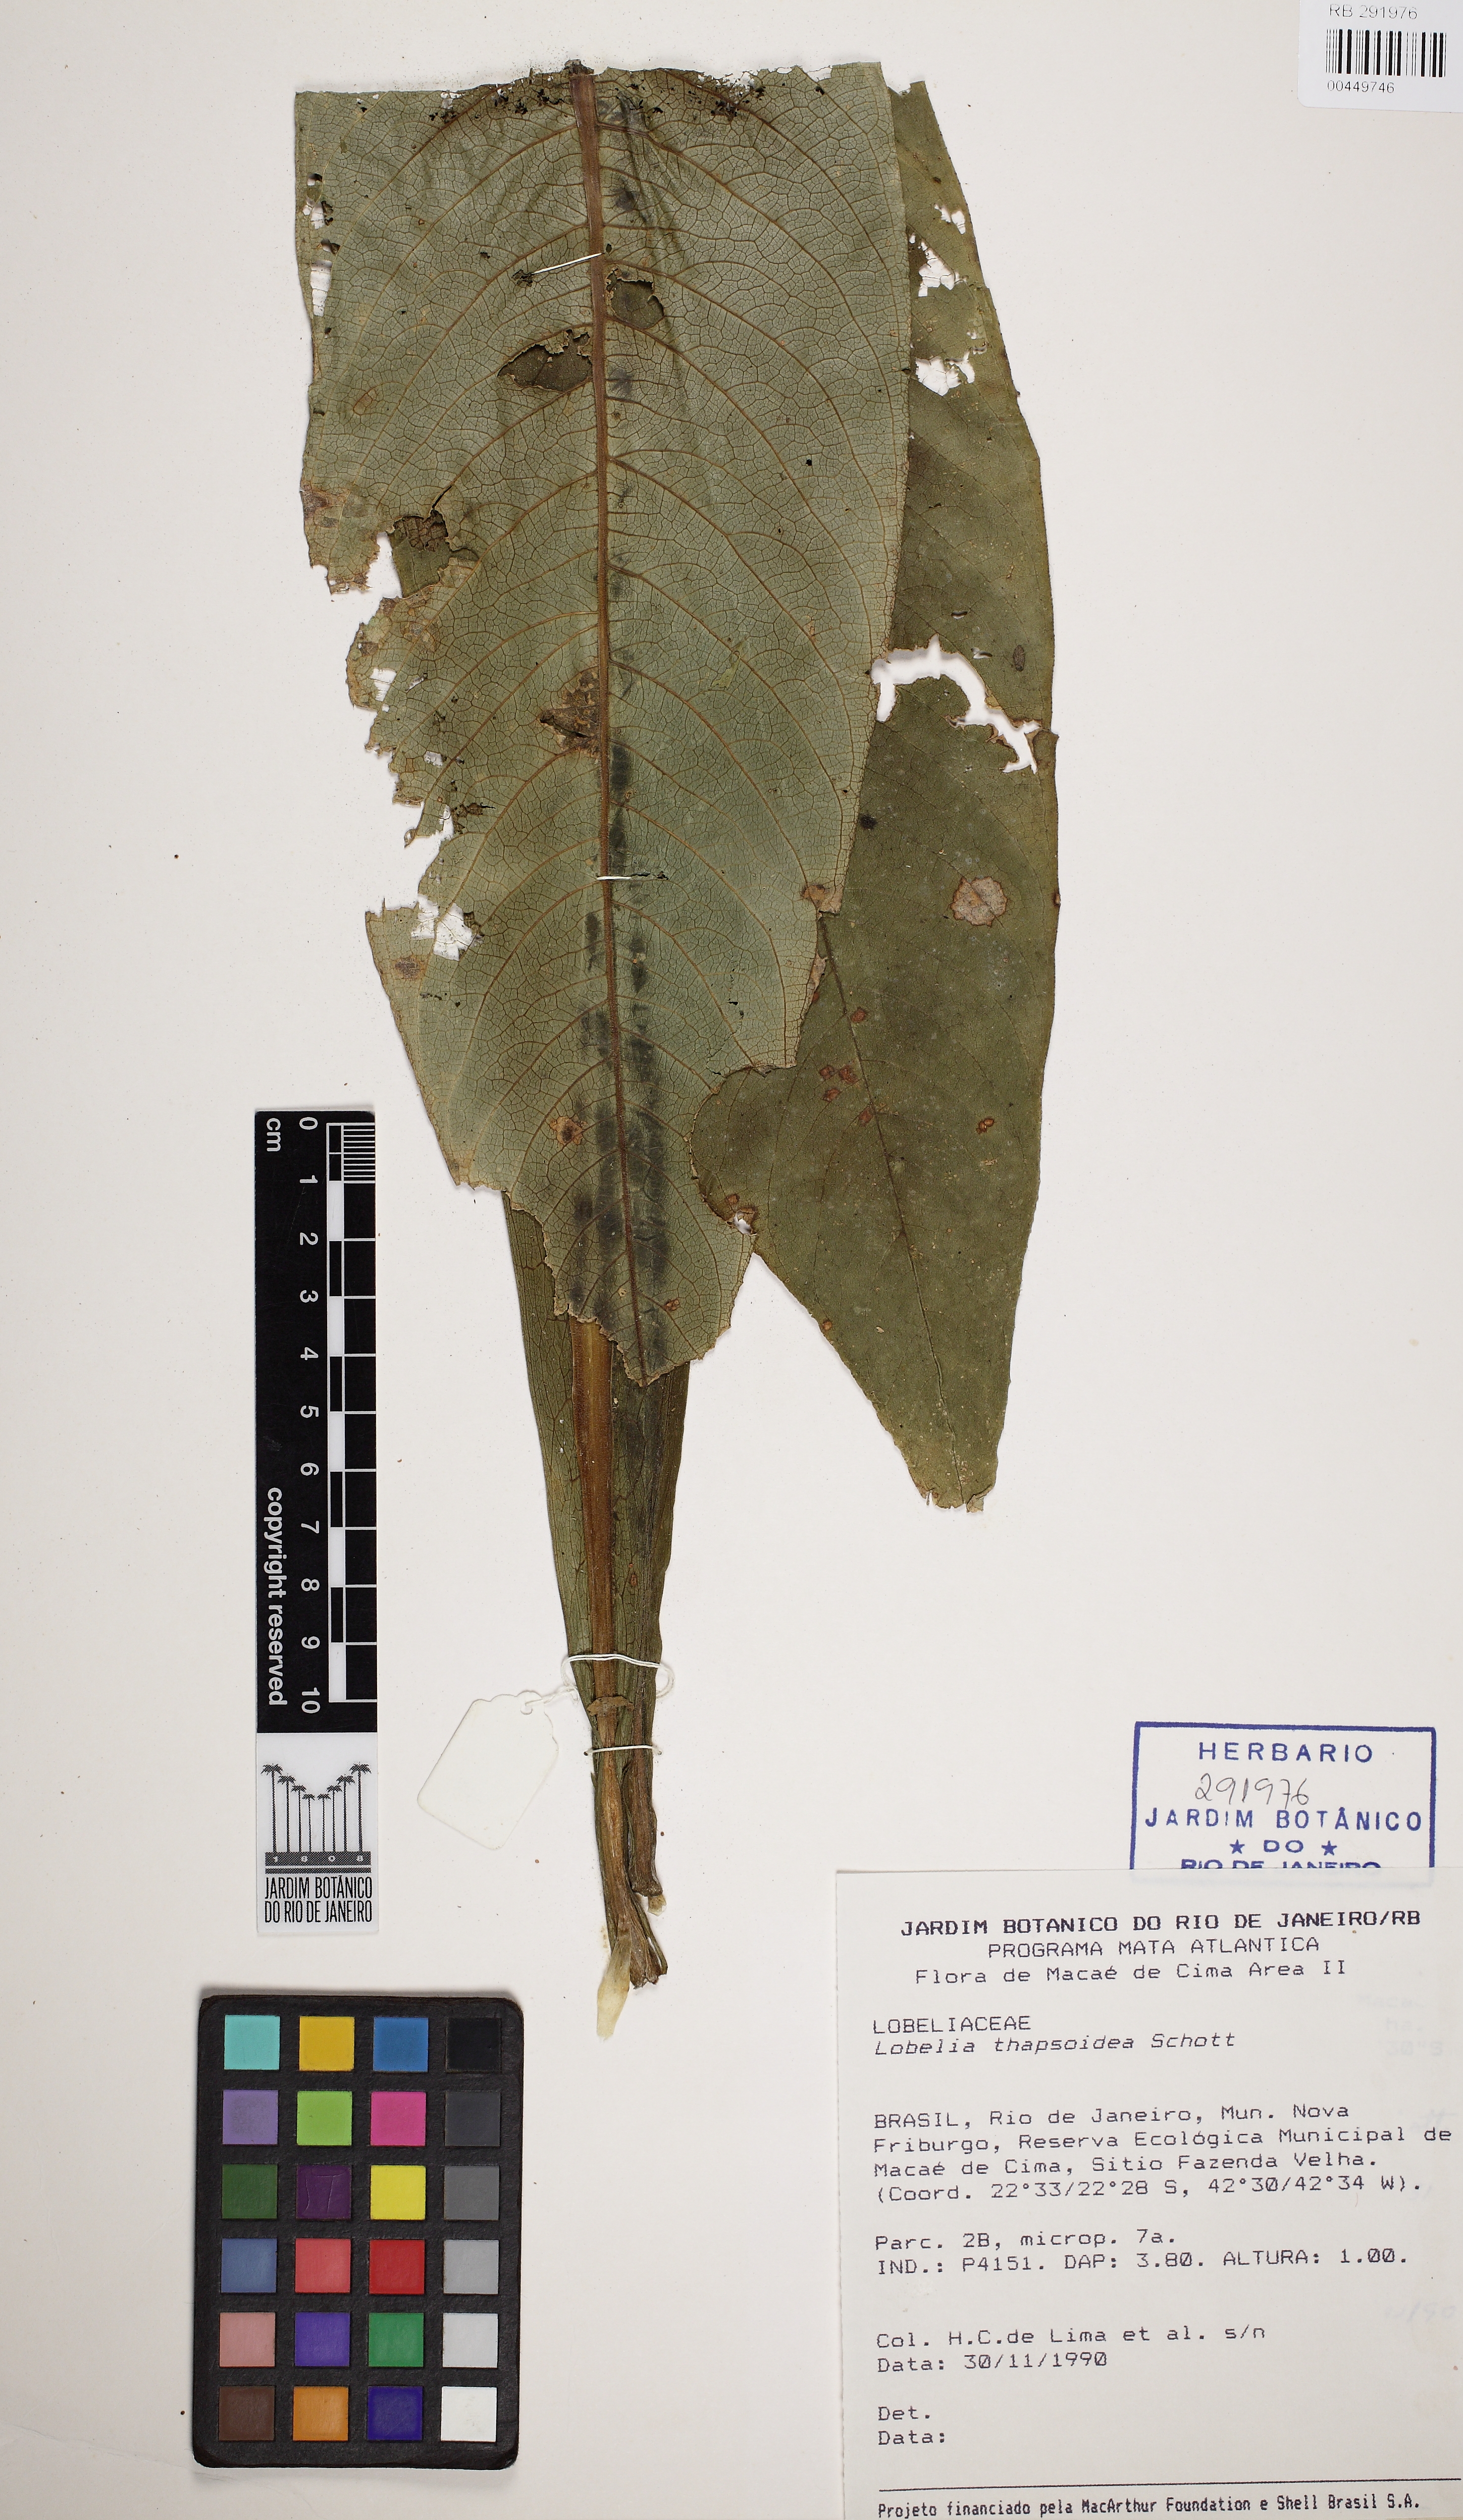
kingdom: Plantae
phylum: Tracheophyta
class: Magnoliopsida
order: Asterales
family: Campanulaceae
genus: Lobelia
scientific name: Lobelia thapsoidea
